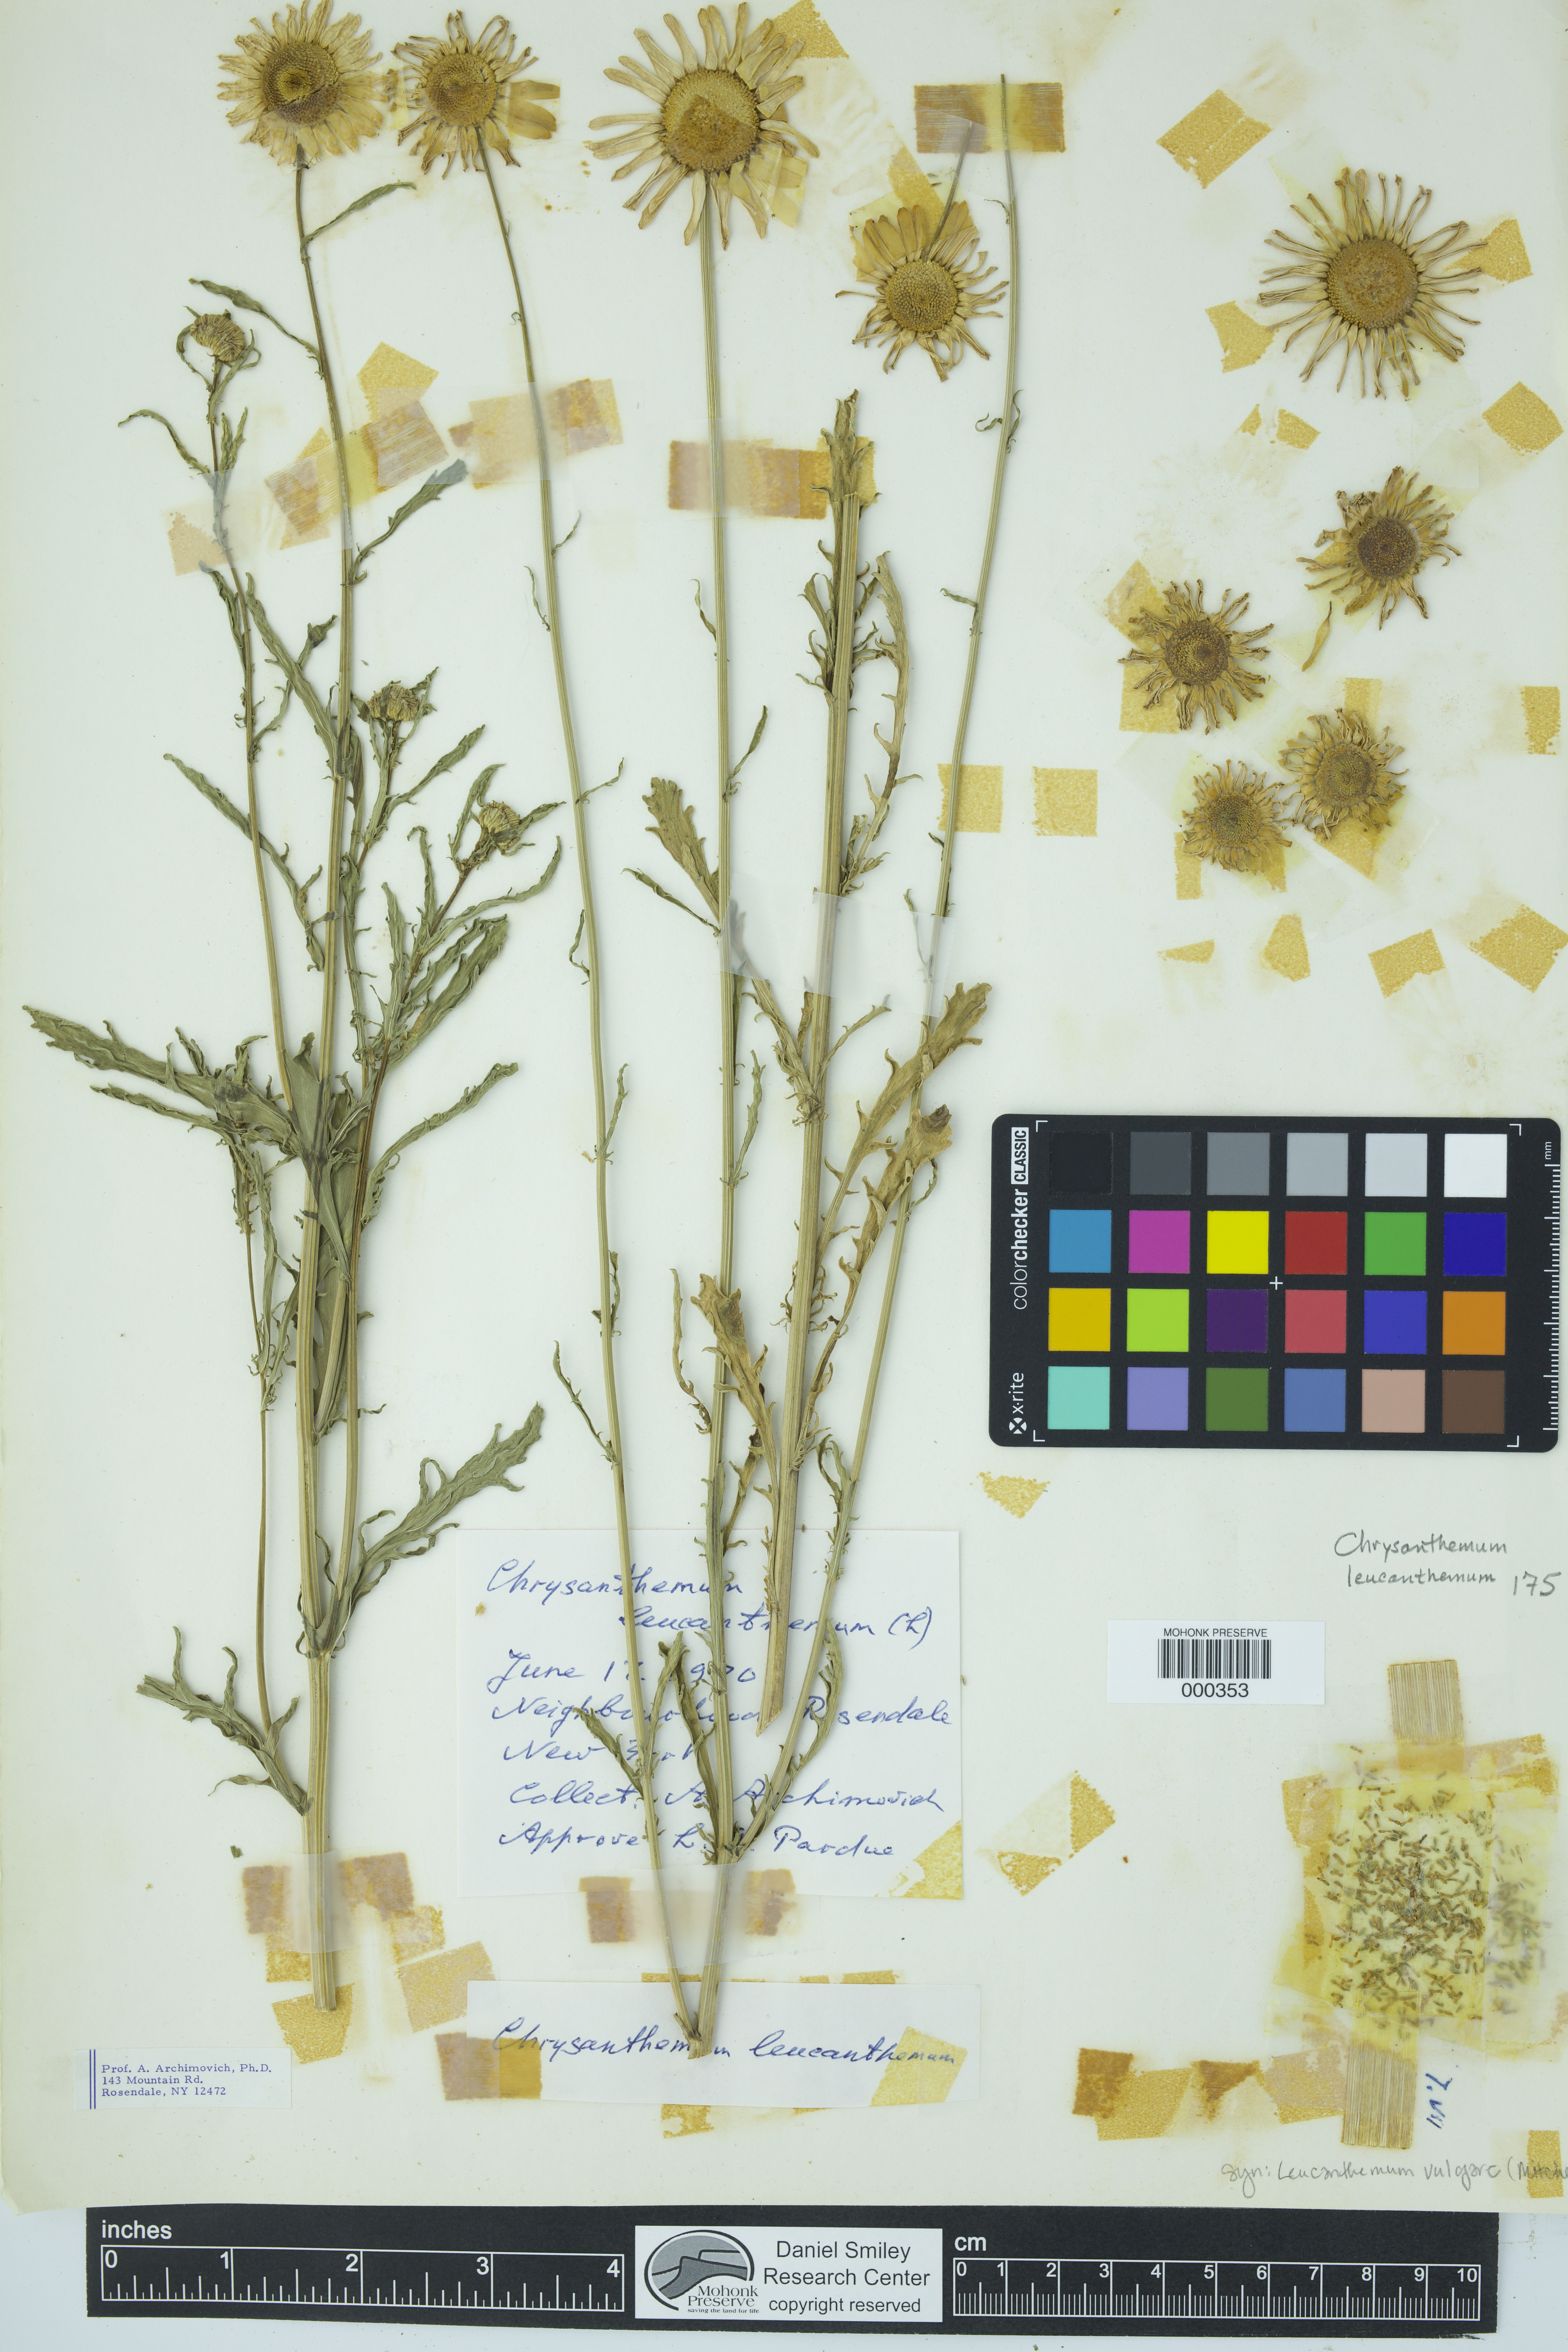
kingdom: Plantae
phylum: Tracheophyta
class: Magnoliopsida
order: Asterales
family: Asteraceae
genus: Leucanthemum
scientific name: Leucanthemum vulgare
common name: Oxeye daisy
